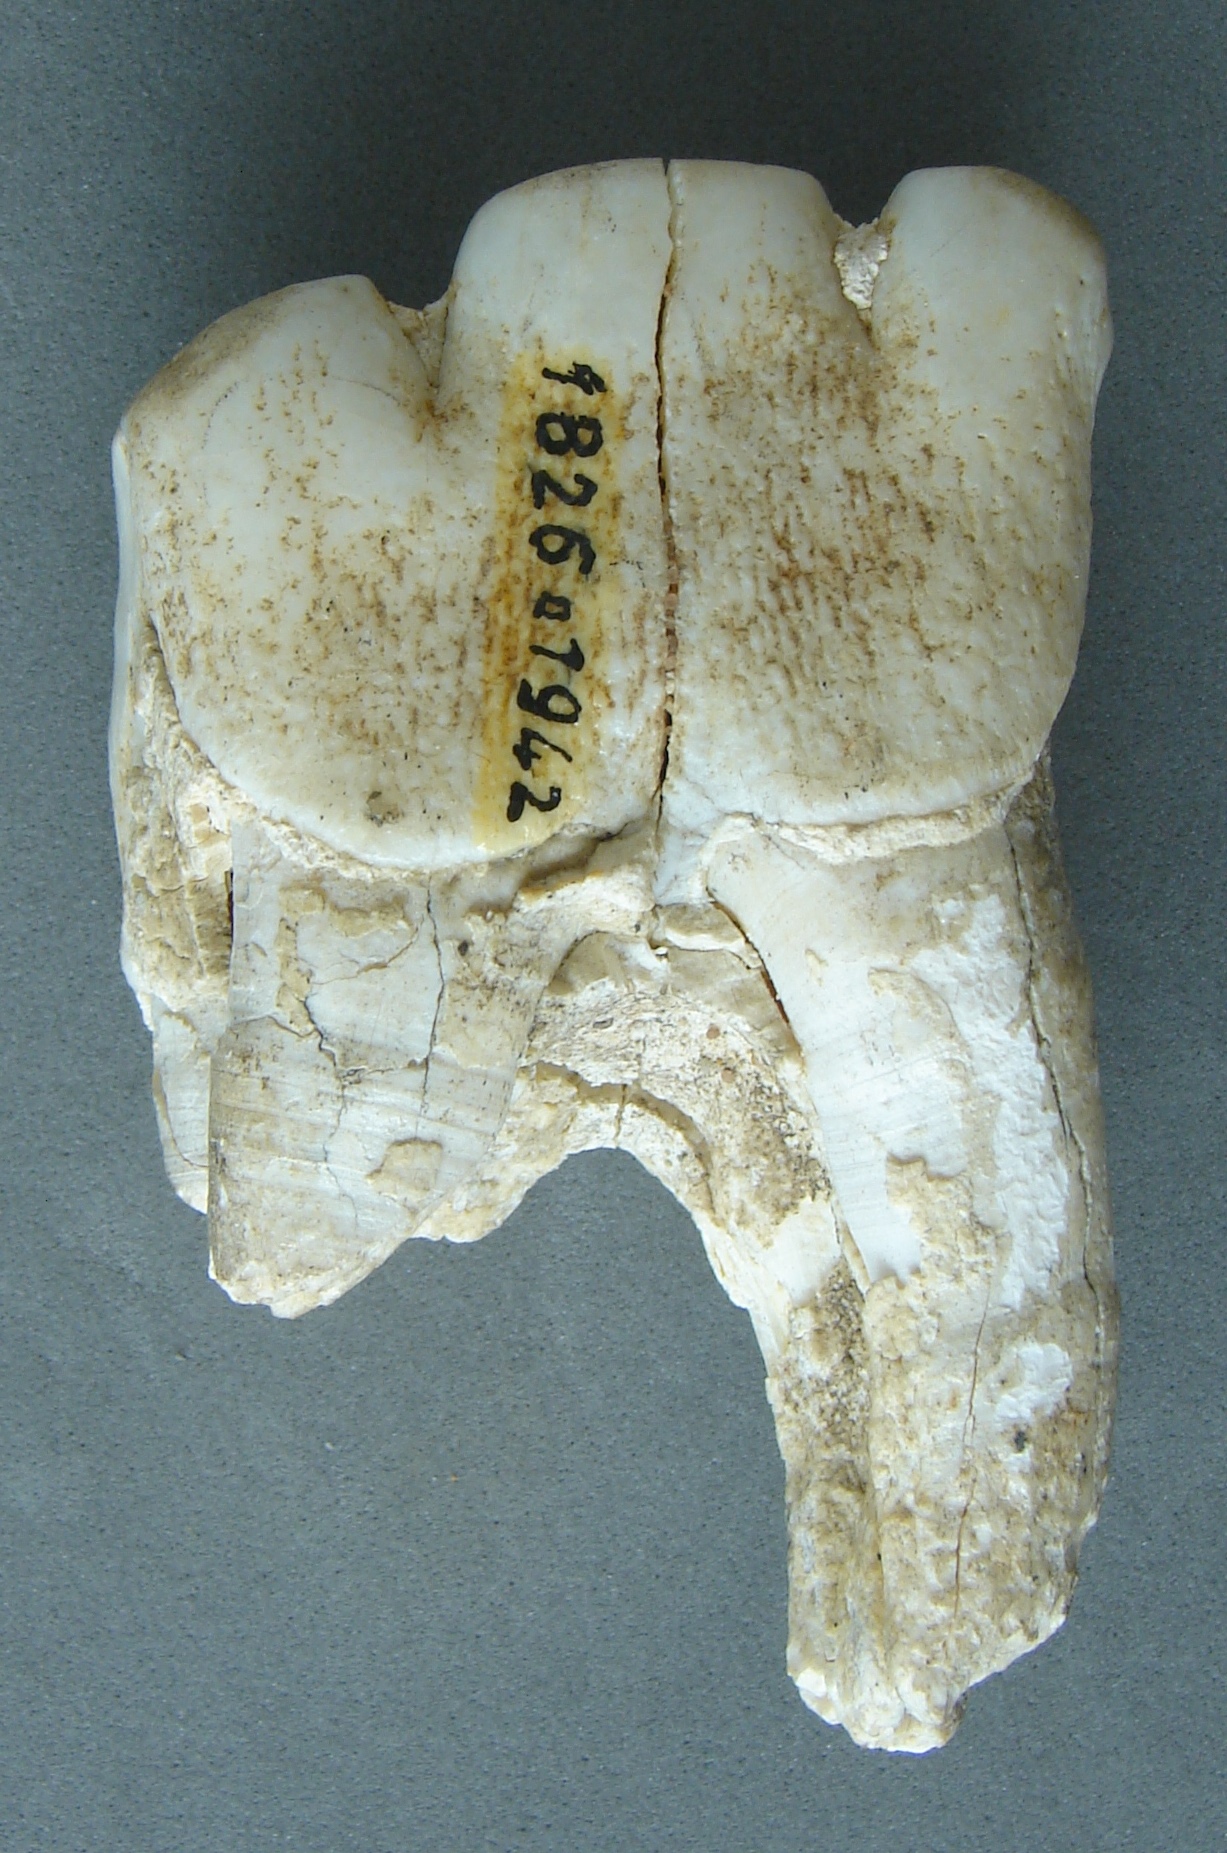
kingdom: Animalia
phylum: Chordata
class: Mammalia
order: Perissodactyla
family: Rhinocerotidae
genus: Rhinoceros
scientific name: Rhinoceros
